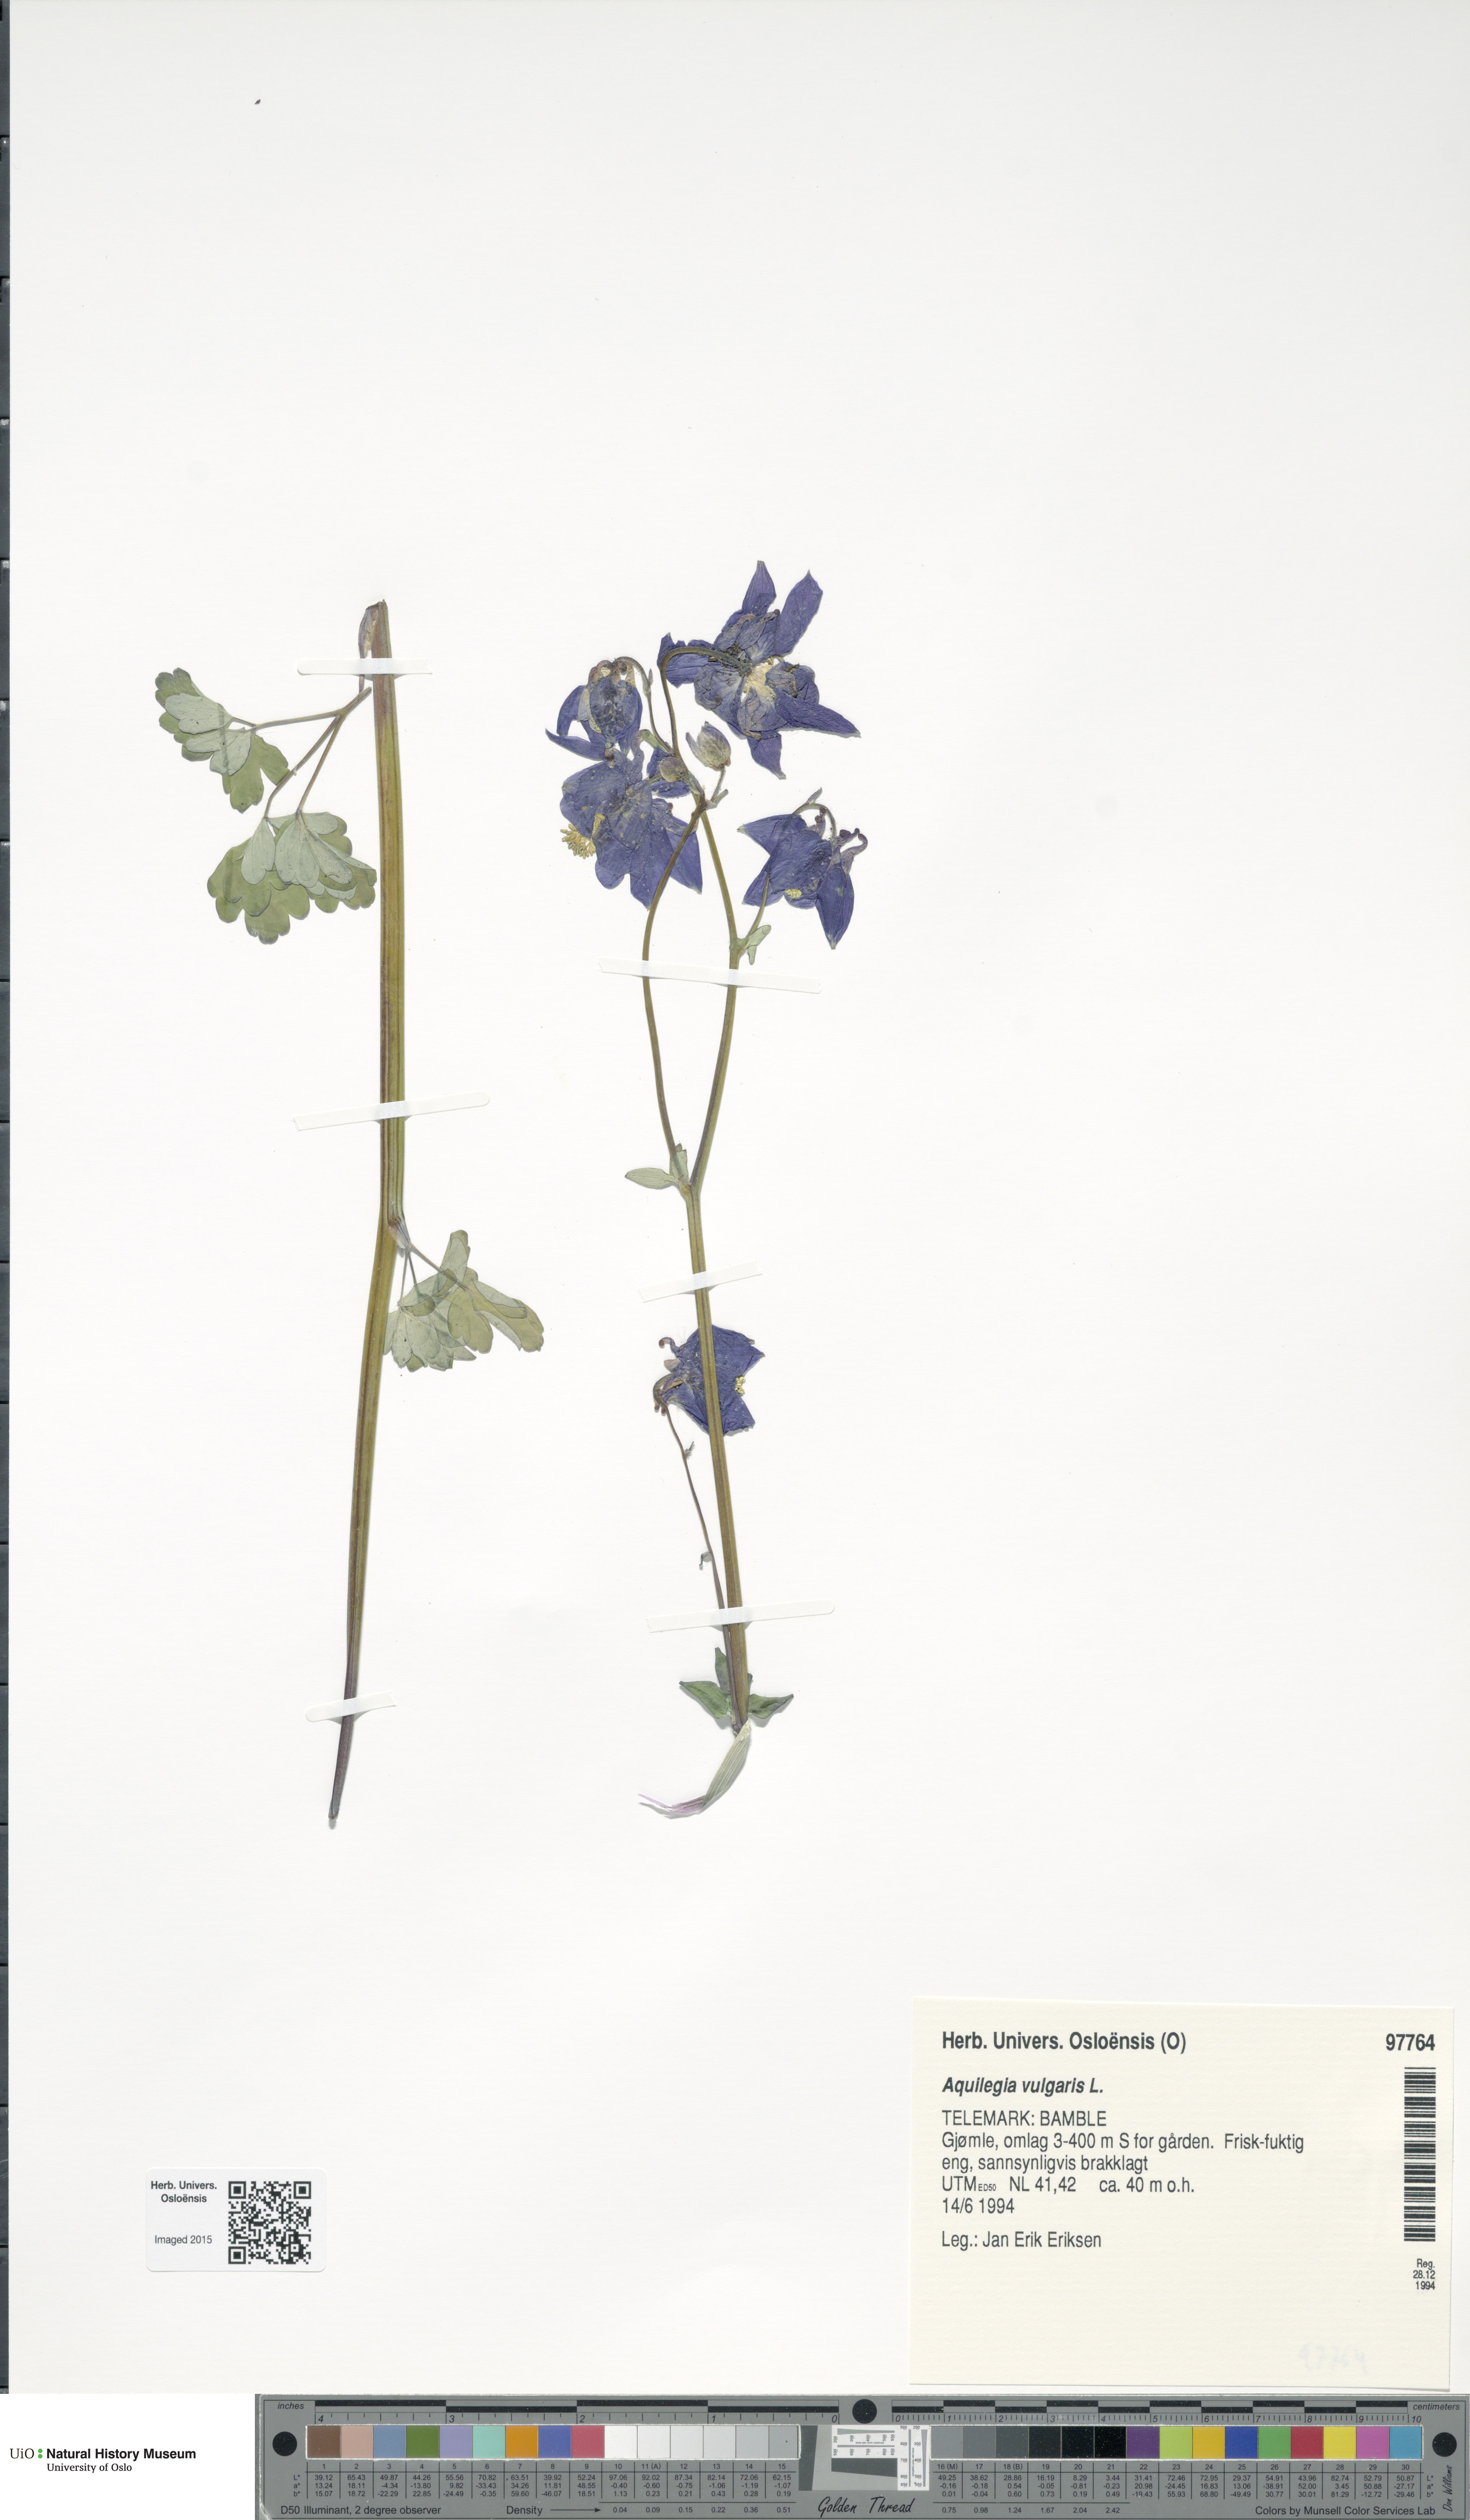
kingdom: Plantae
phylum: Tracheophyta
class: Magnoliopsida
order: Ranunculales
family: Ranunculaceae
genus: Aquilegia
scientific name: Aquilegia vulgaris
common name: Columbine
